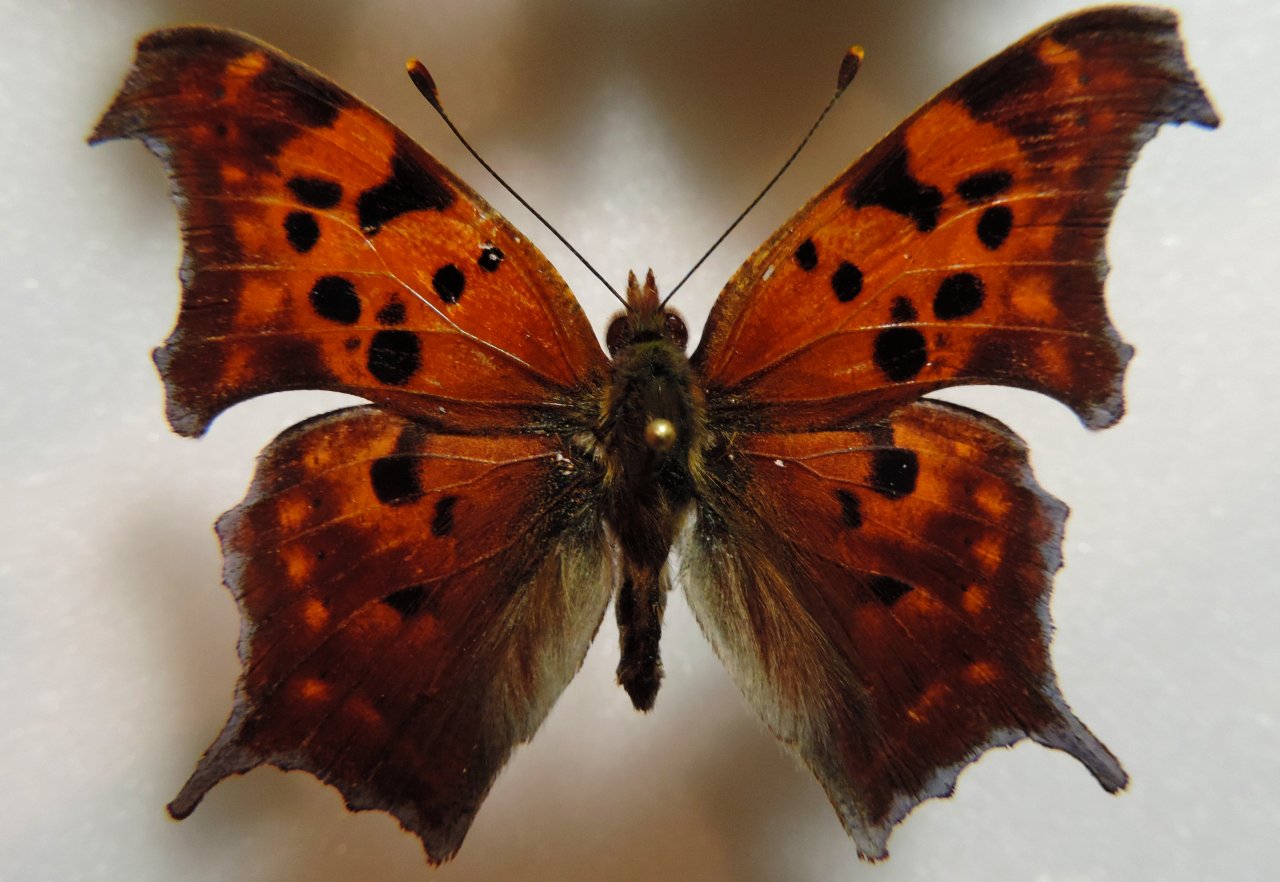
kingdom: Animalia
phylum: Arthropoda
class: Insecta
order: Lepidoptera
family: Nymphalidae
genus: Polygonia
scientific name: Polygonia interrogationis
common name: Question Mark
